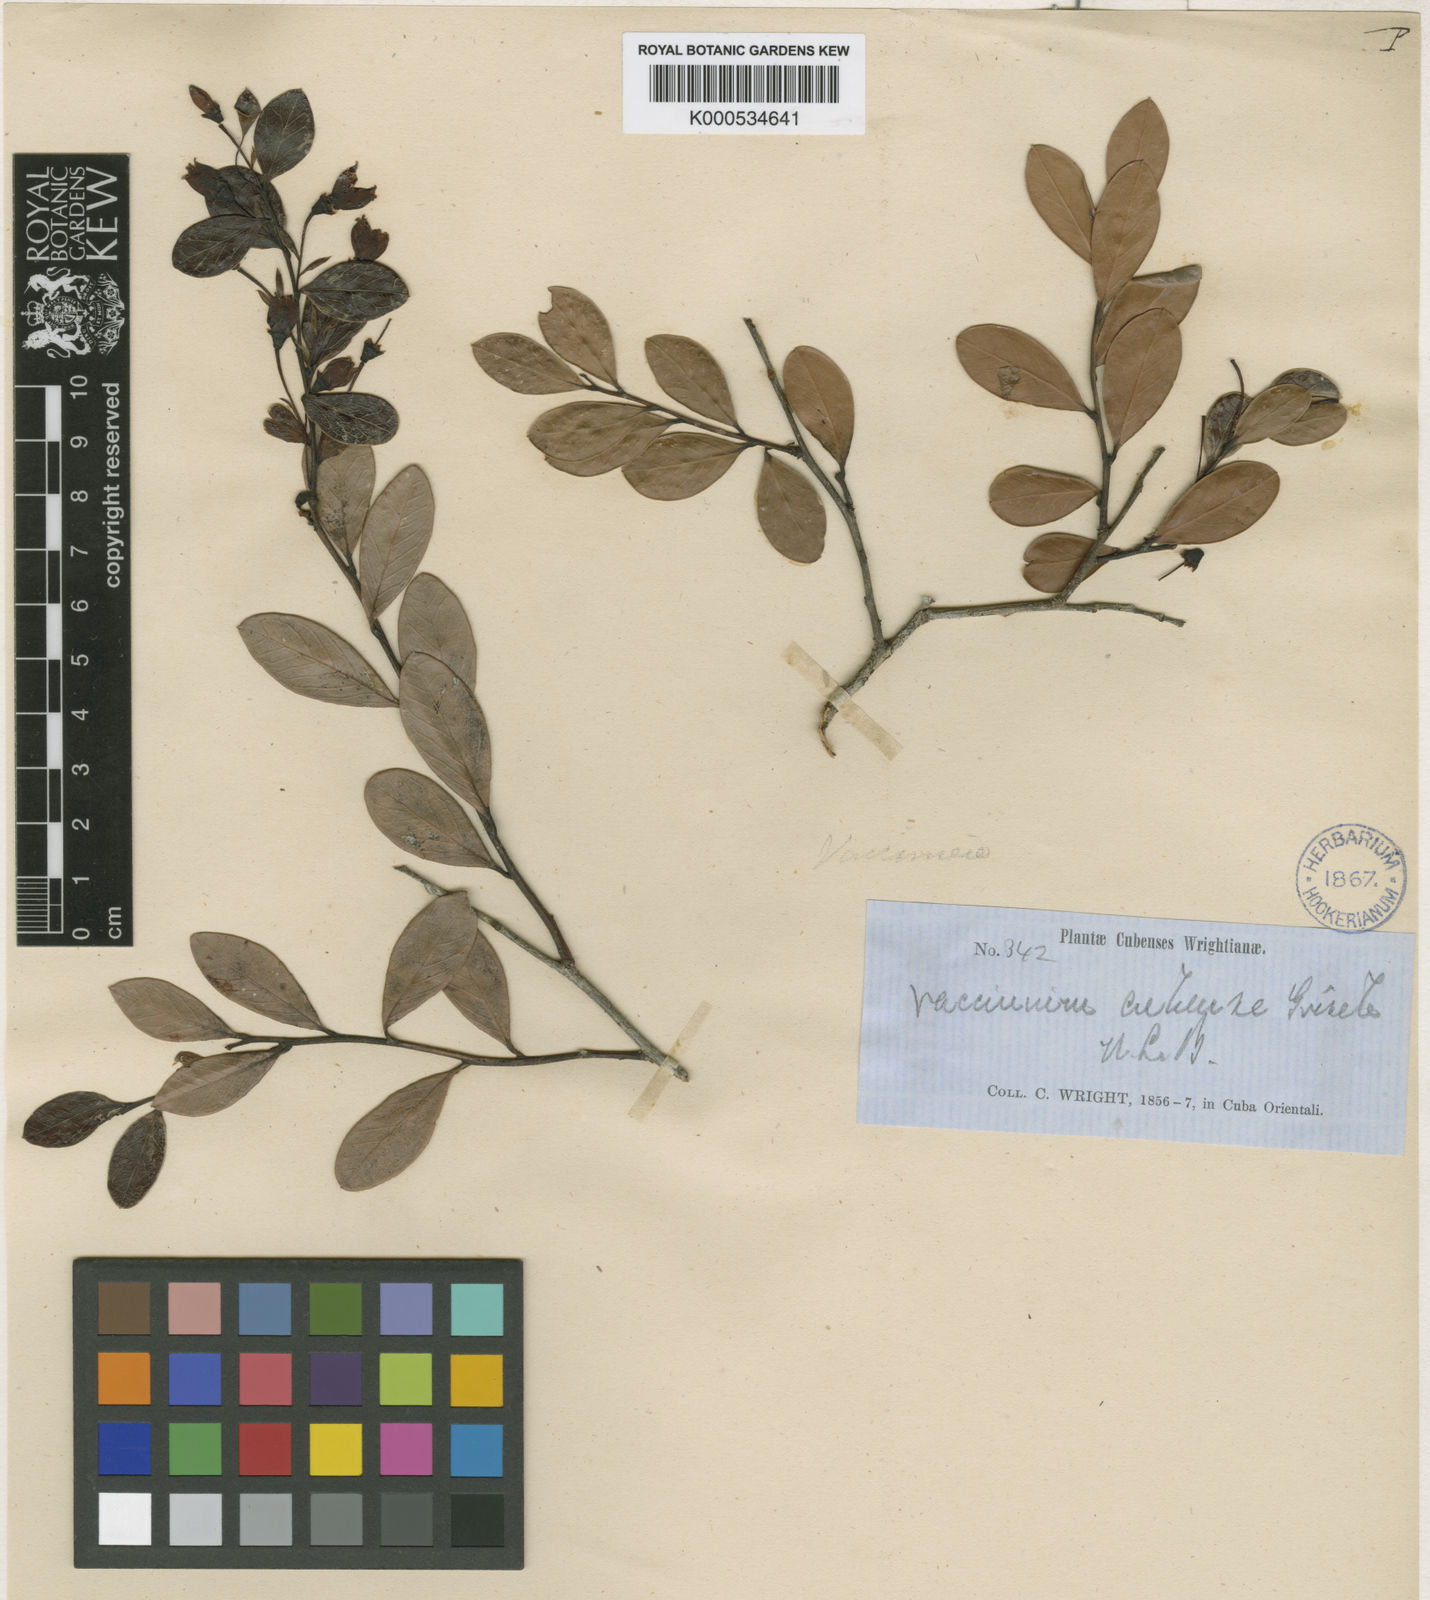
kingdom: Plantae
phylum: Tracheophyta
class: Magnoliopsida
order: Ericales
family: Ericaceae
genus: Vaccinium
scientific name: Vaccinium cubense
